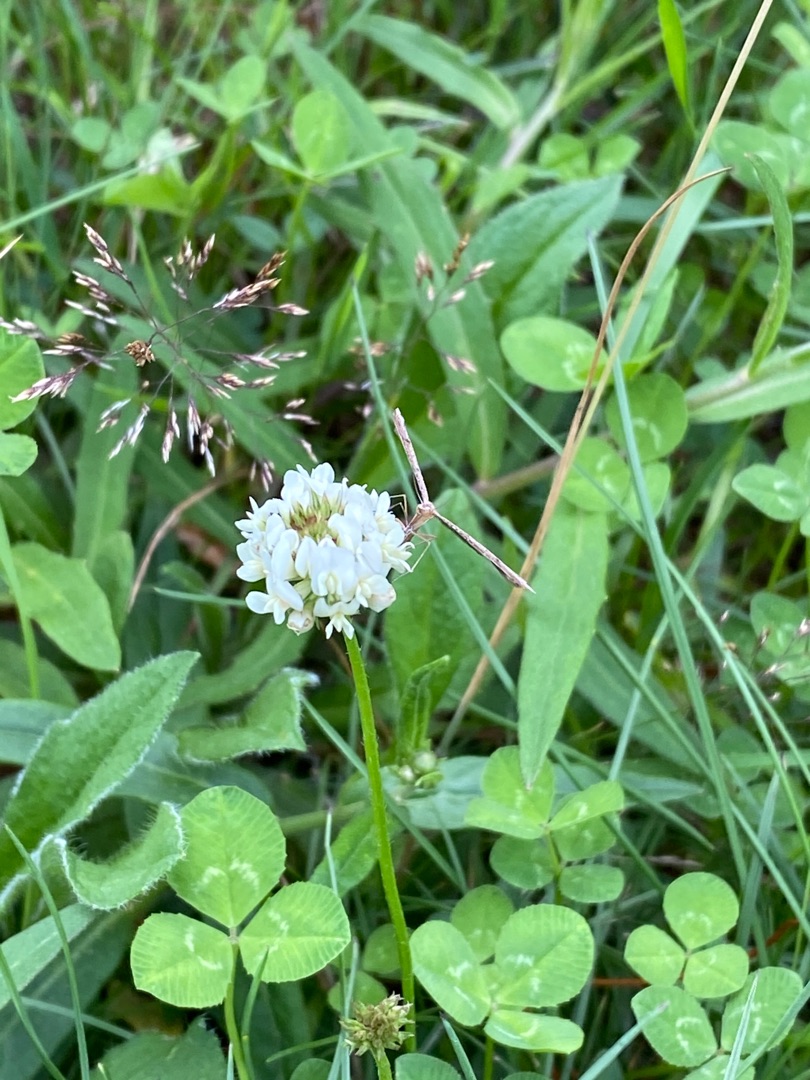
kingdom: Plantae
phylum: Tracheophyta
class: Magnoliopsida
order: Fabales
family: Fabaceae
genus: Trifolium
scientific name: Trifolium repens
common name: Hvid-kløver
